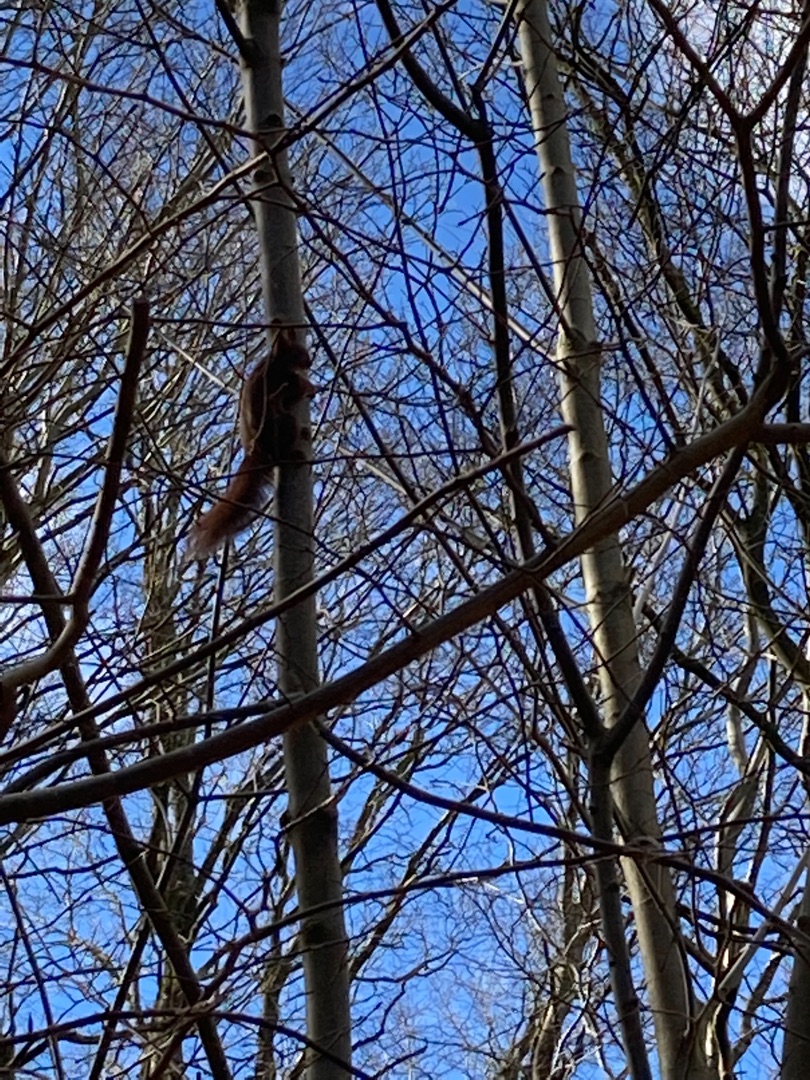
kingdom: Animalia
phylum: Chordata
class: Mammalia
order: Rodentia
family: Sciuridae
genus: Sciurus
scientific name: Sciurus vulgaris
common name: Egern
